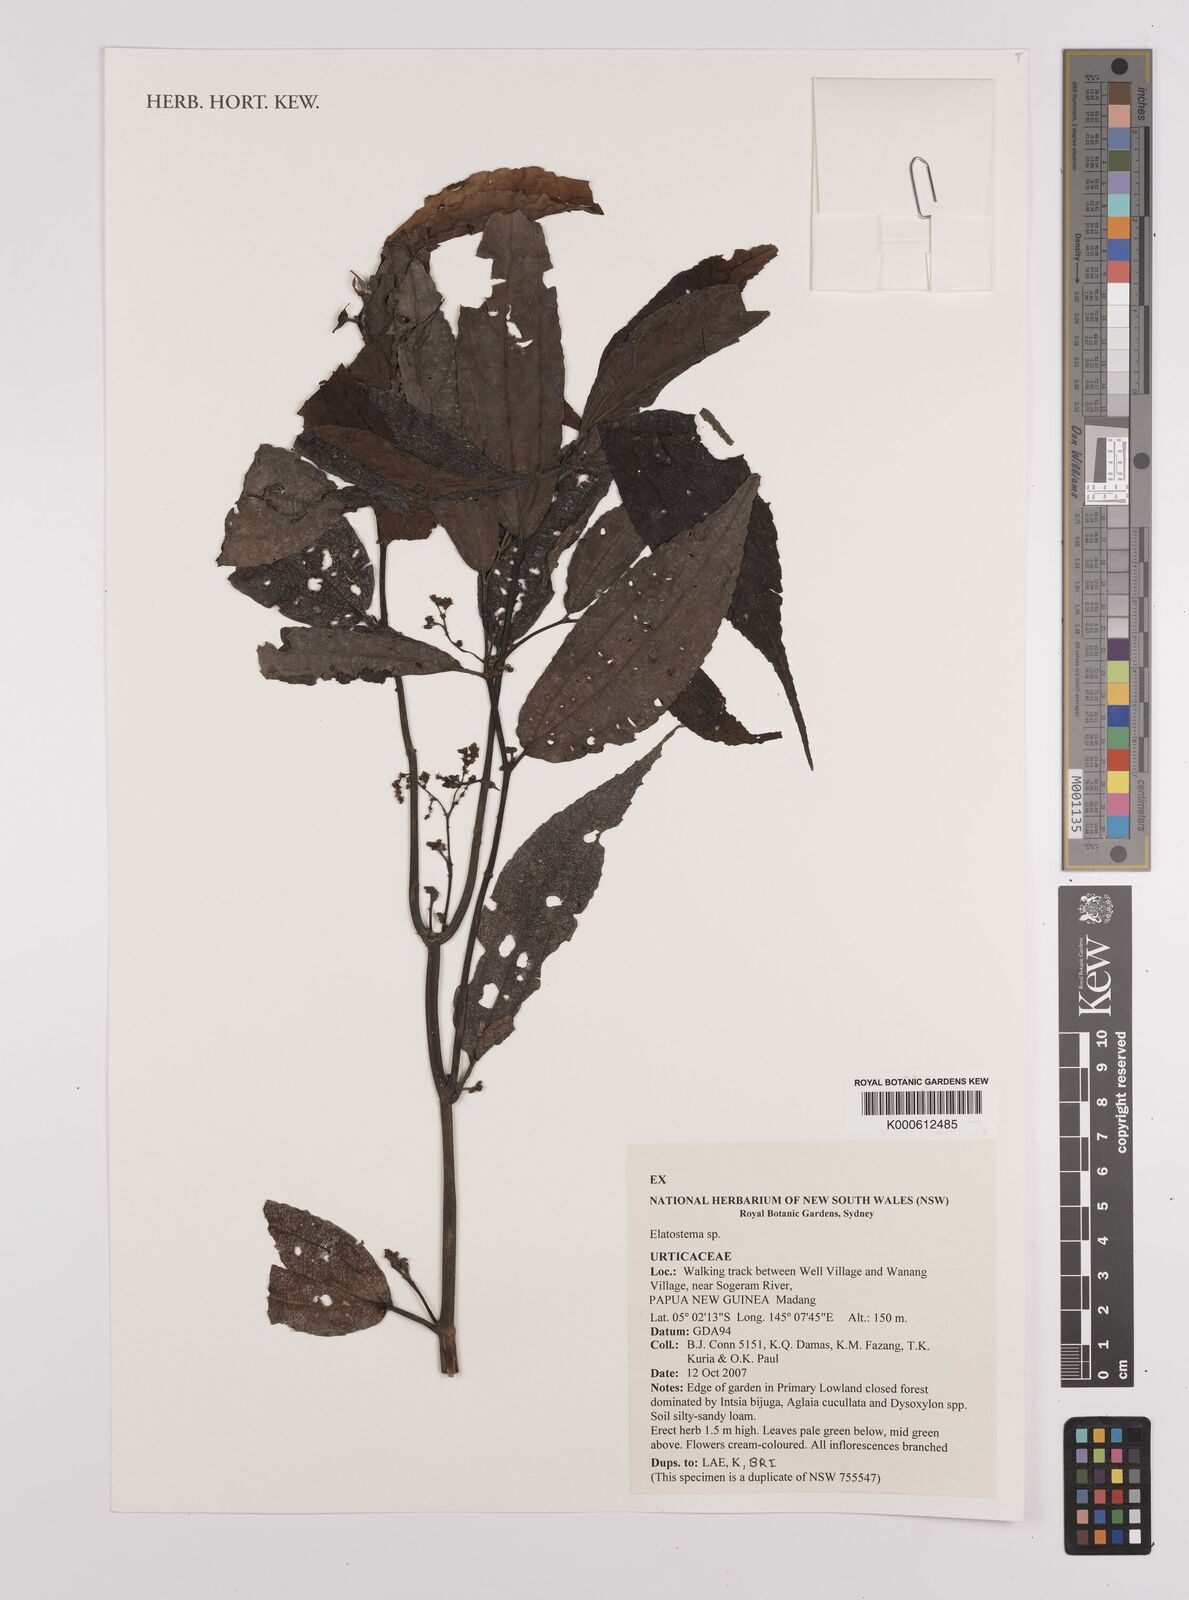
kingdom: Plantae
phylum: Tracheophyta
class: Magnoliopsida
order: Rosales
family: Urticaceae
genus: Elatostema
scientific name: Elatostema
